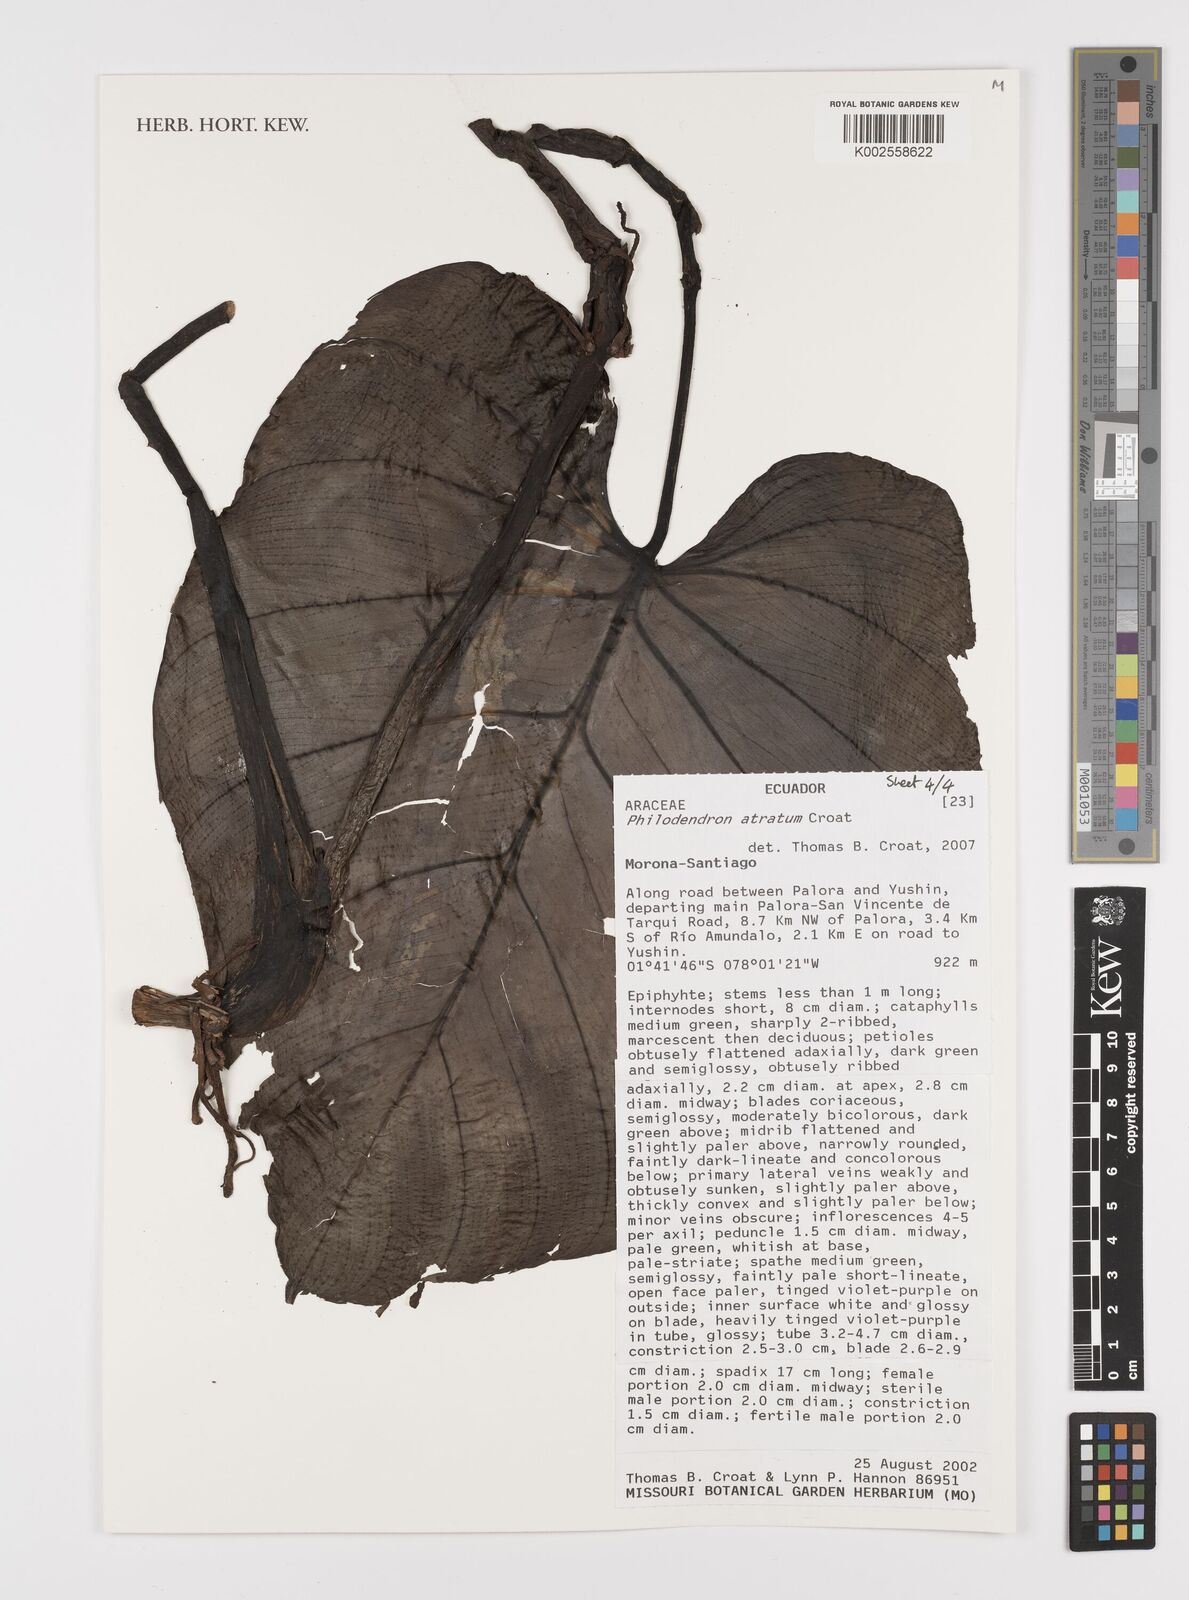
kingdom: Plantae
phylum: Tracheophyta
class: Liliopsida
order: Alismatales
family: Araceae
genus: Philodendron
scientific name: Philodendron atratum
